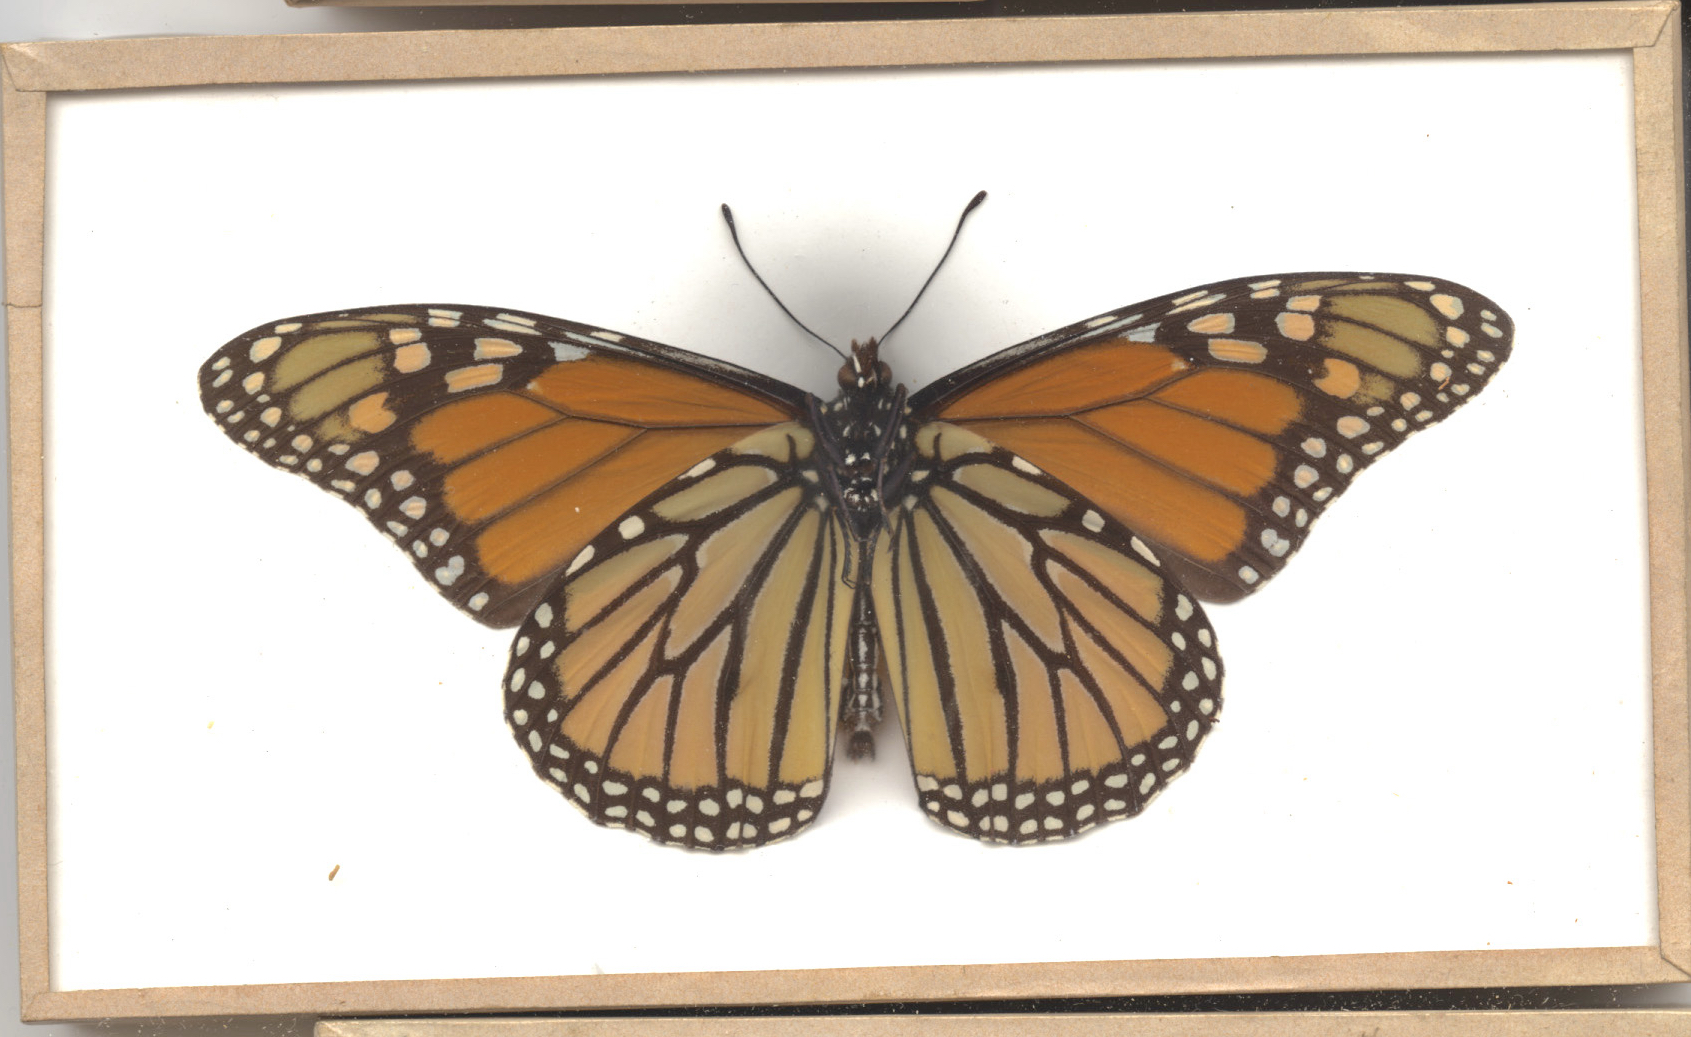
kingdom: Animalia
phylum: Arthropoda
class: Insecta
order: Lepidoptera
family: Nymphalidae
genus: Danaus
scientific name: Danaus plexippus
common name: Monarch
